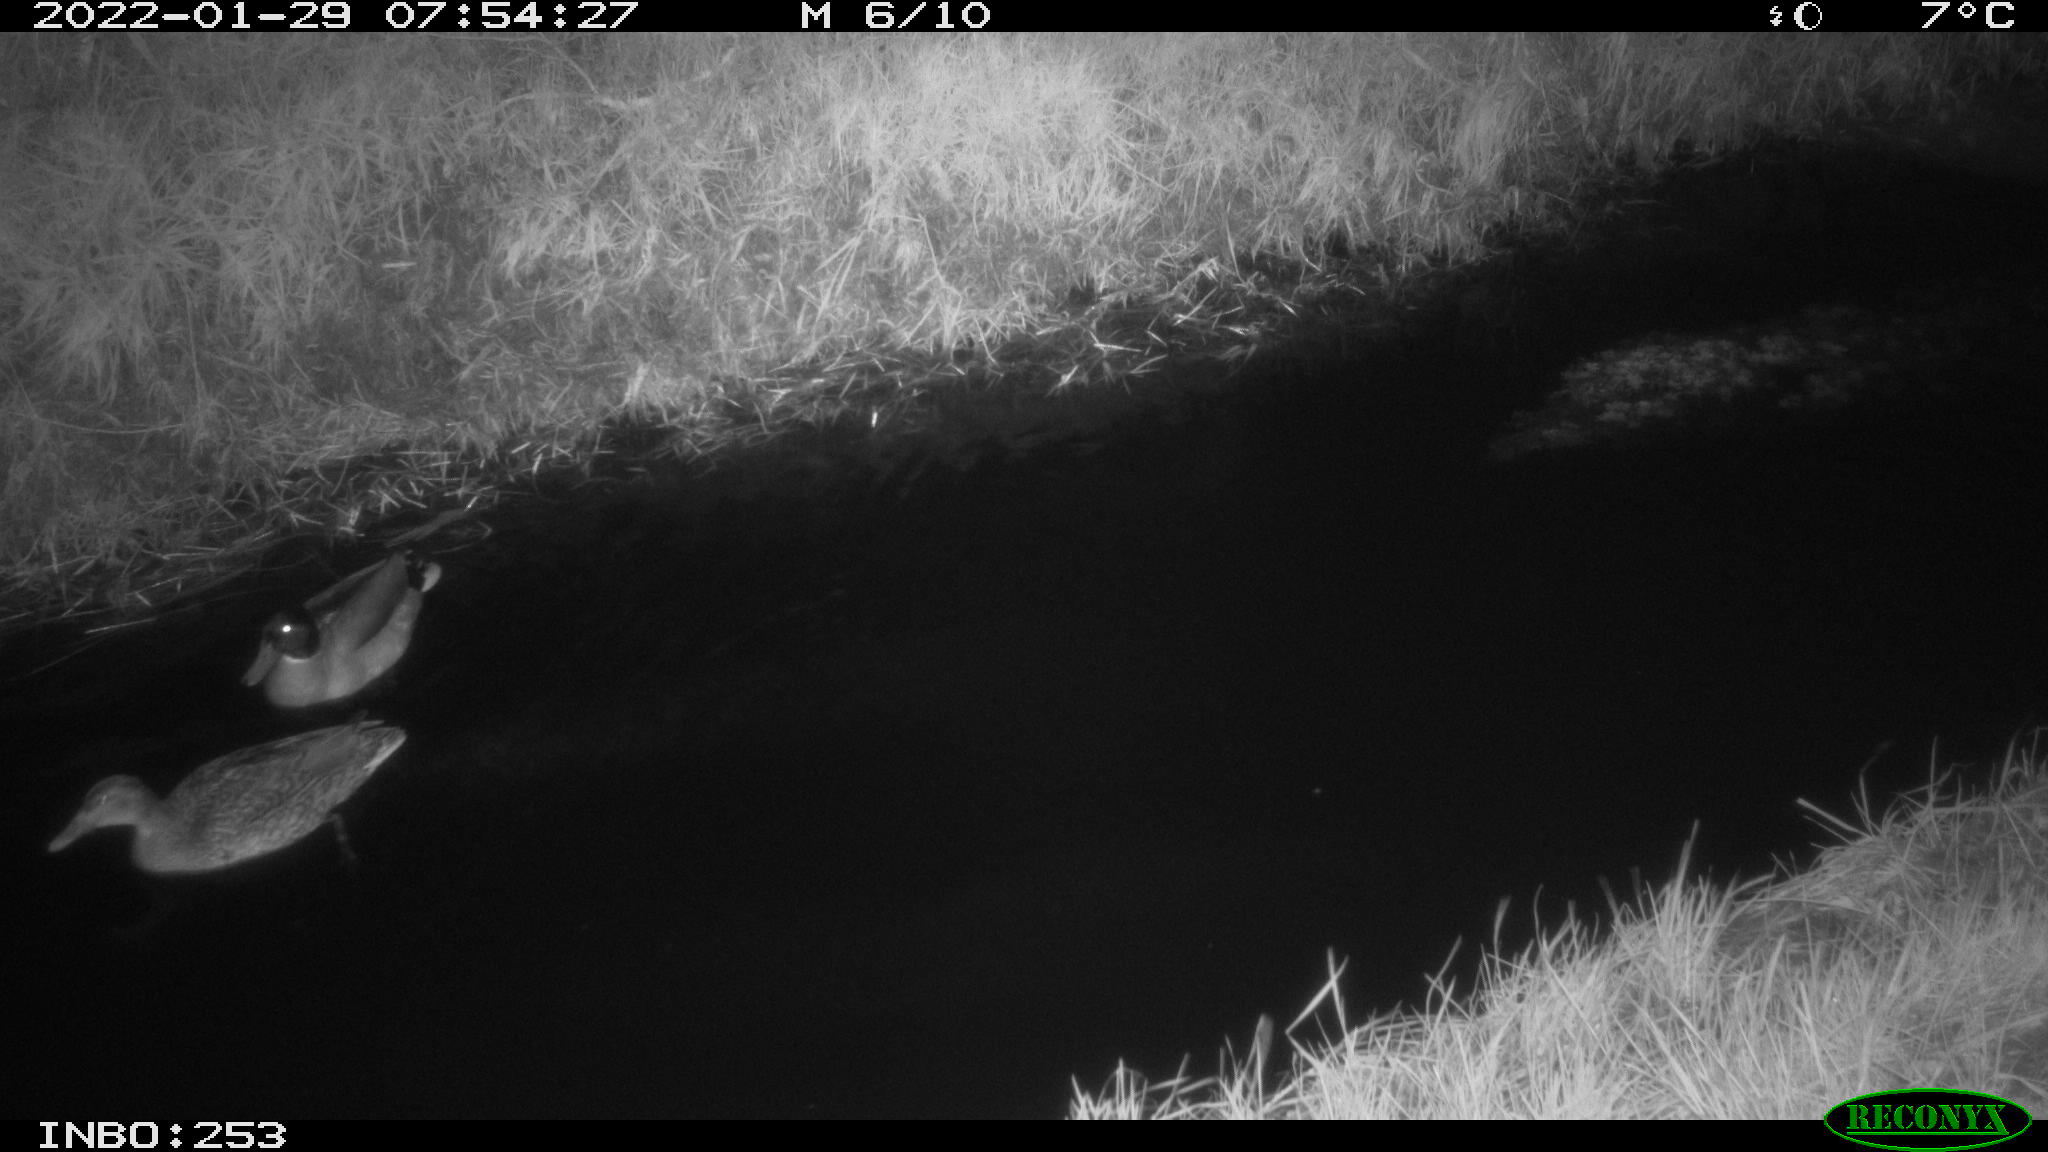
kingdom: Animalia
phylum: Chordata
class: Aves
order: Anseriformes
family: Anatidae
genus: Anas
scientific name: Anas
